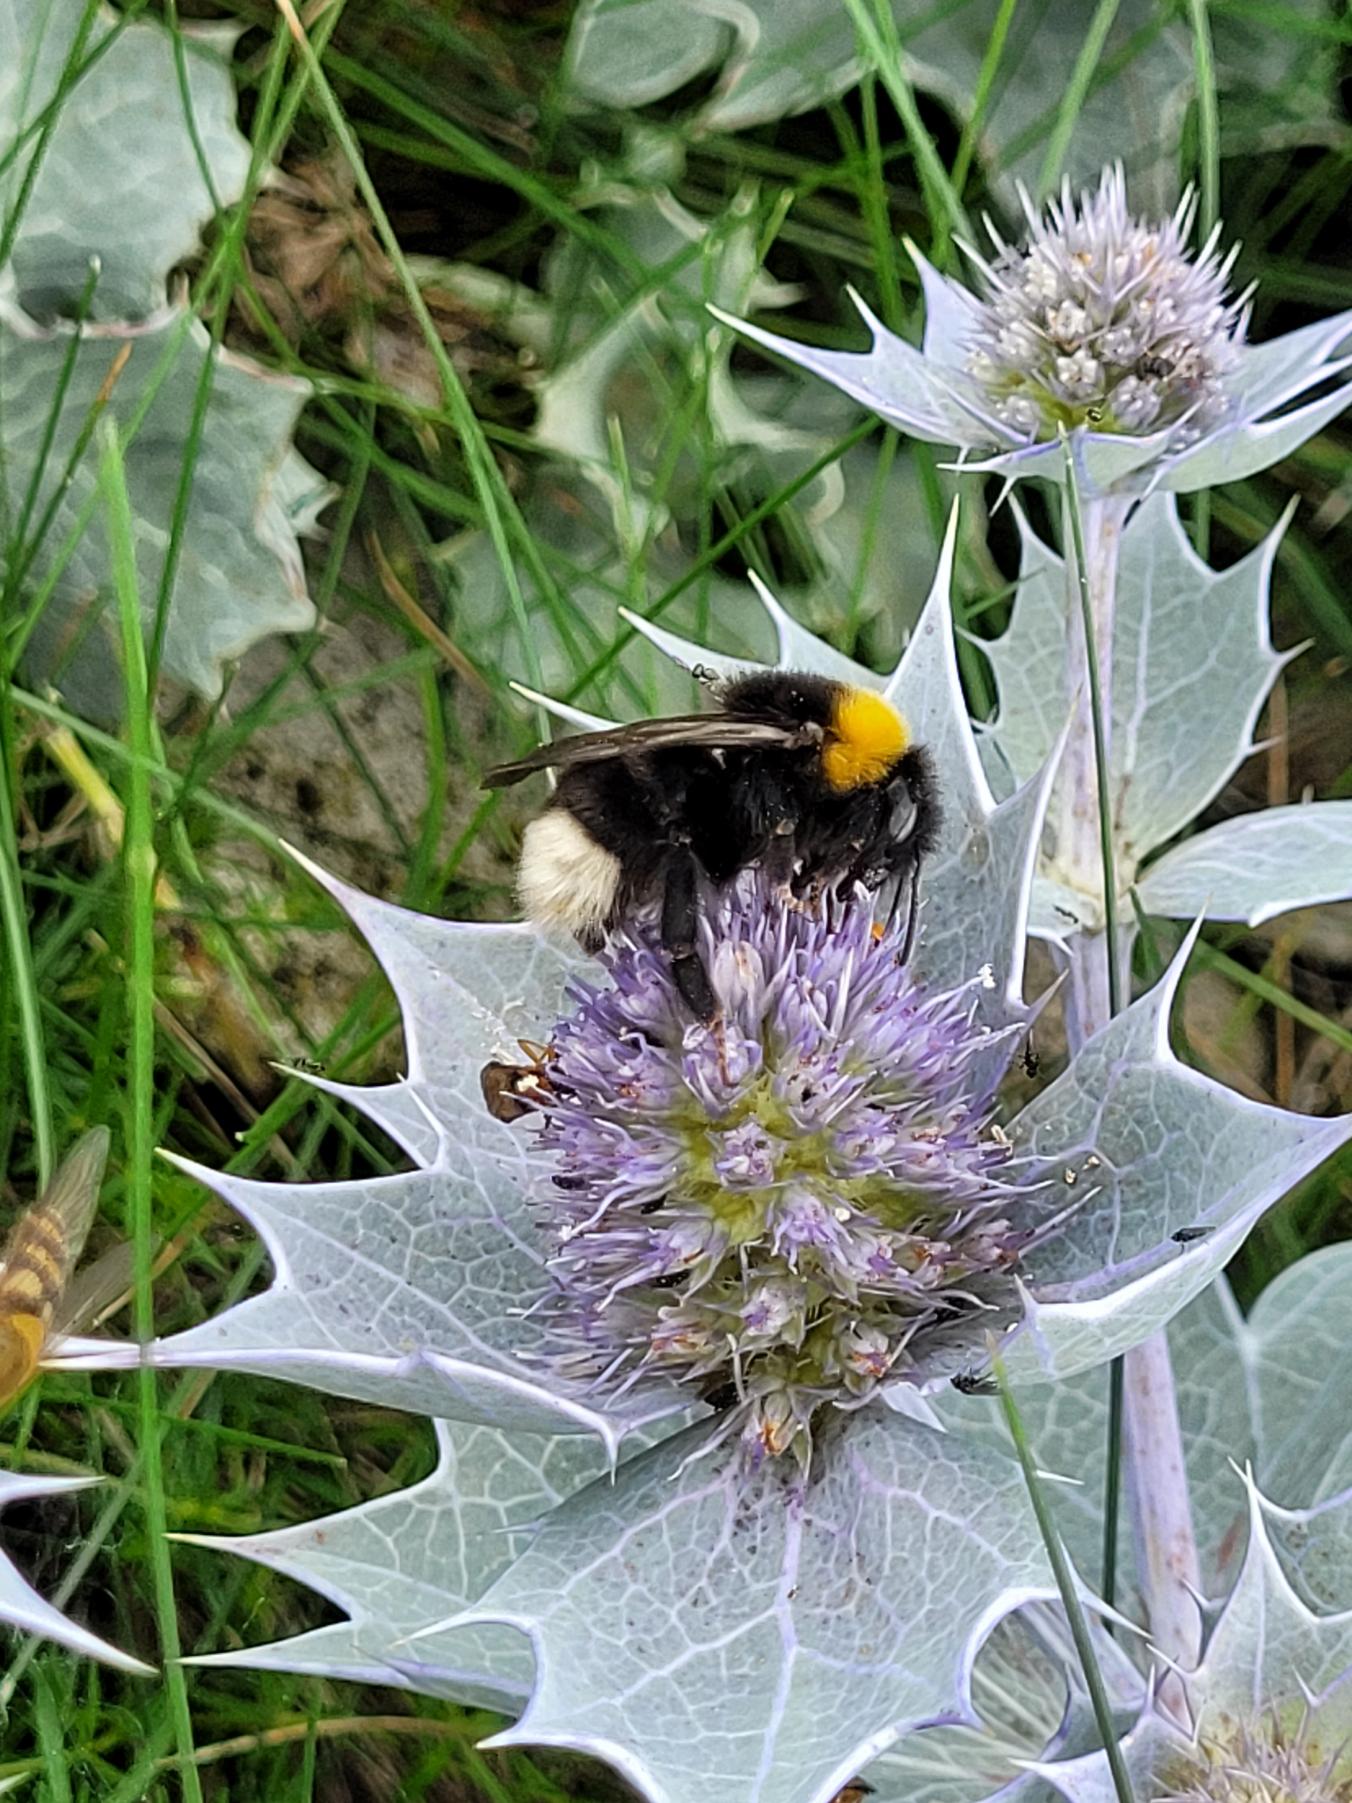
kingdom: Plantae
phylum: Tracheophyta
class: Magnoliopsida
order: Apiales
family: Apiaceae
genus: Eryngium
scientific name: Eryngium maritimum
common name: Strand-mandstro
